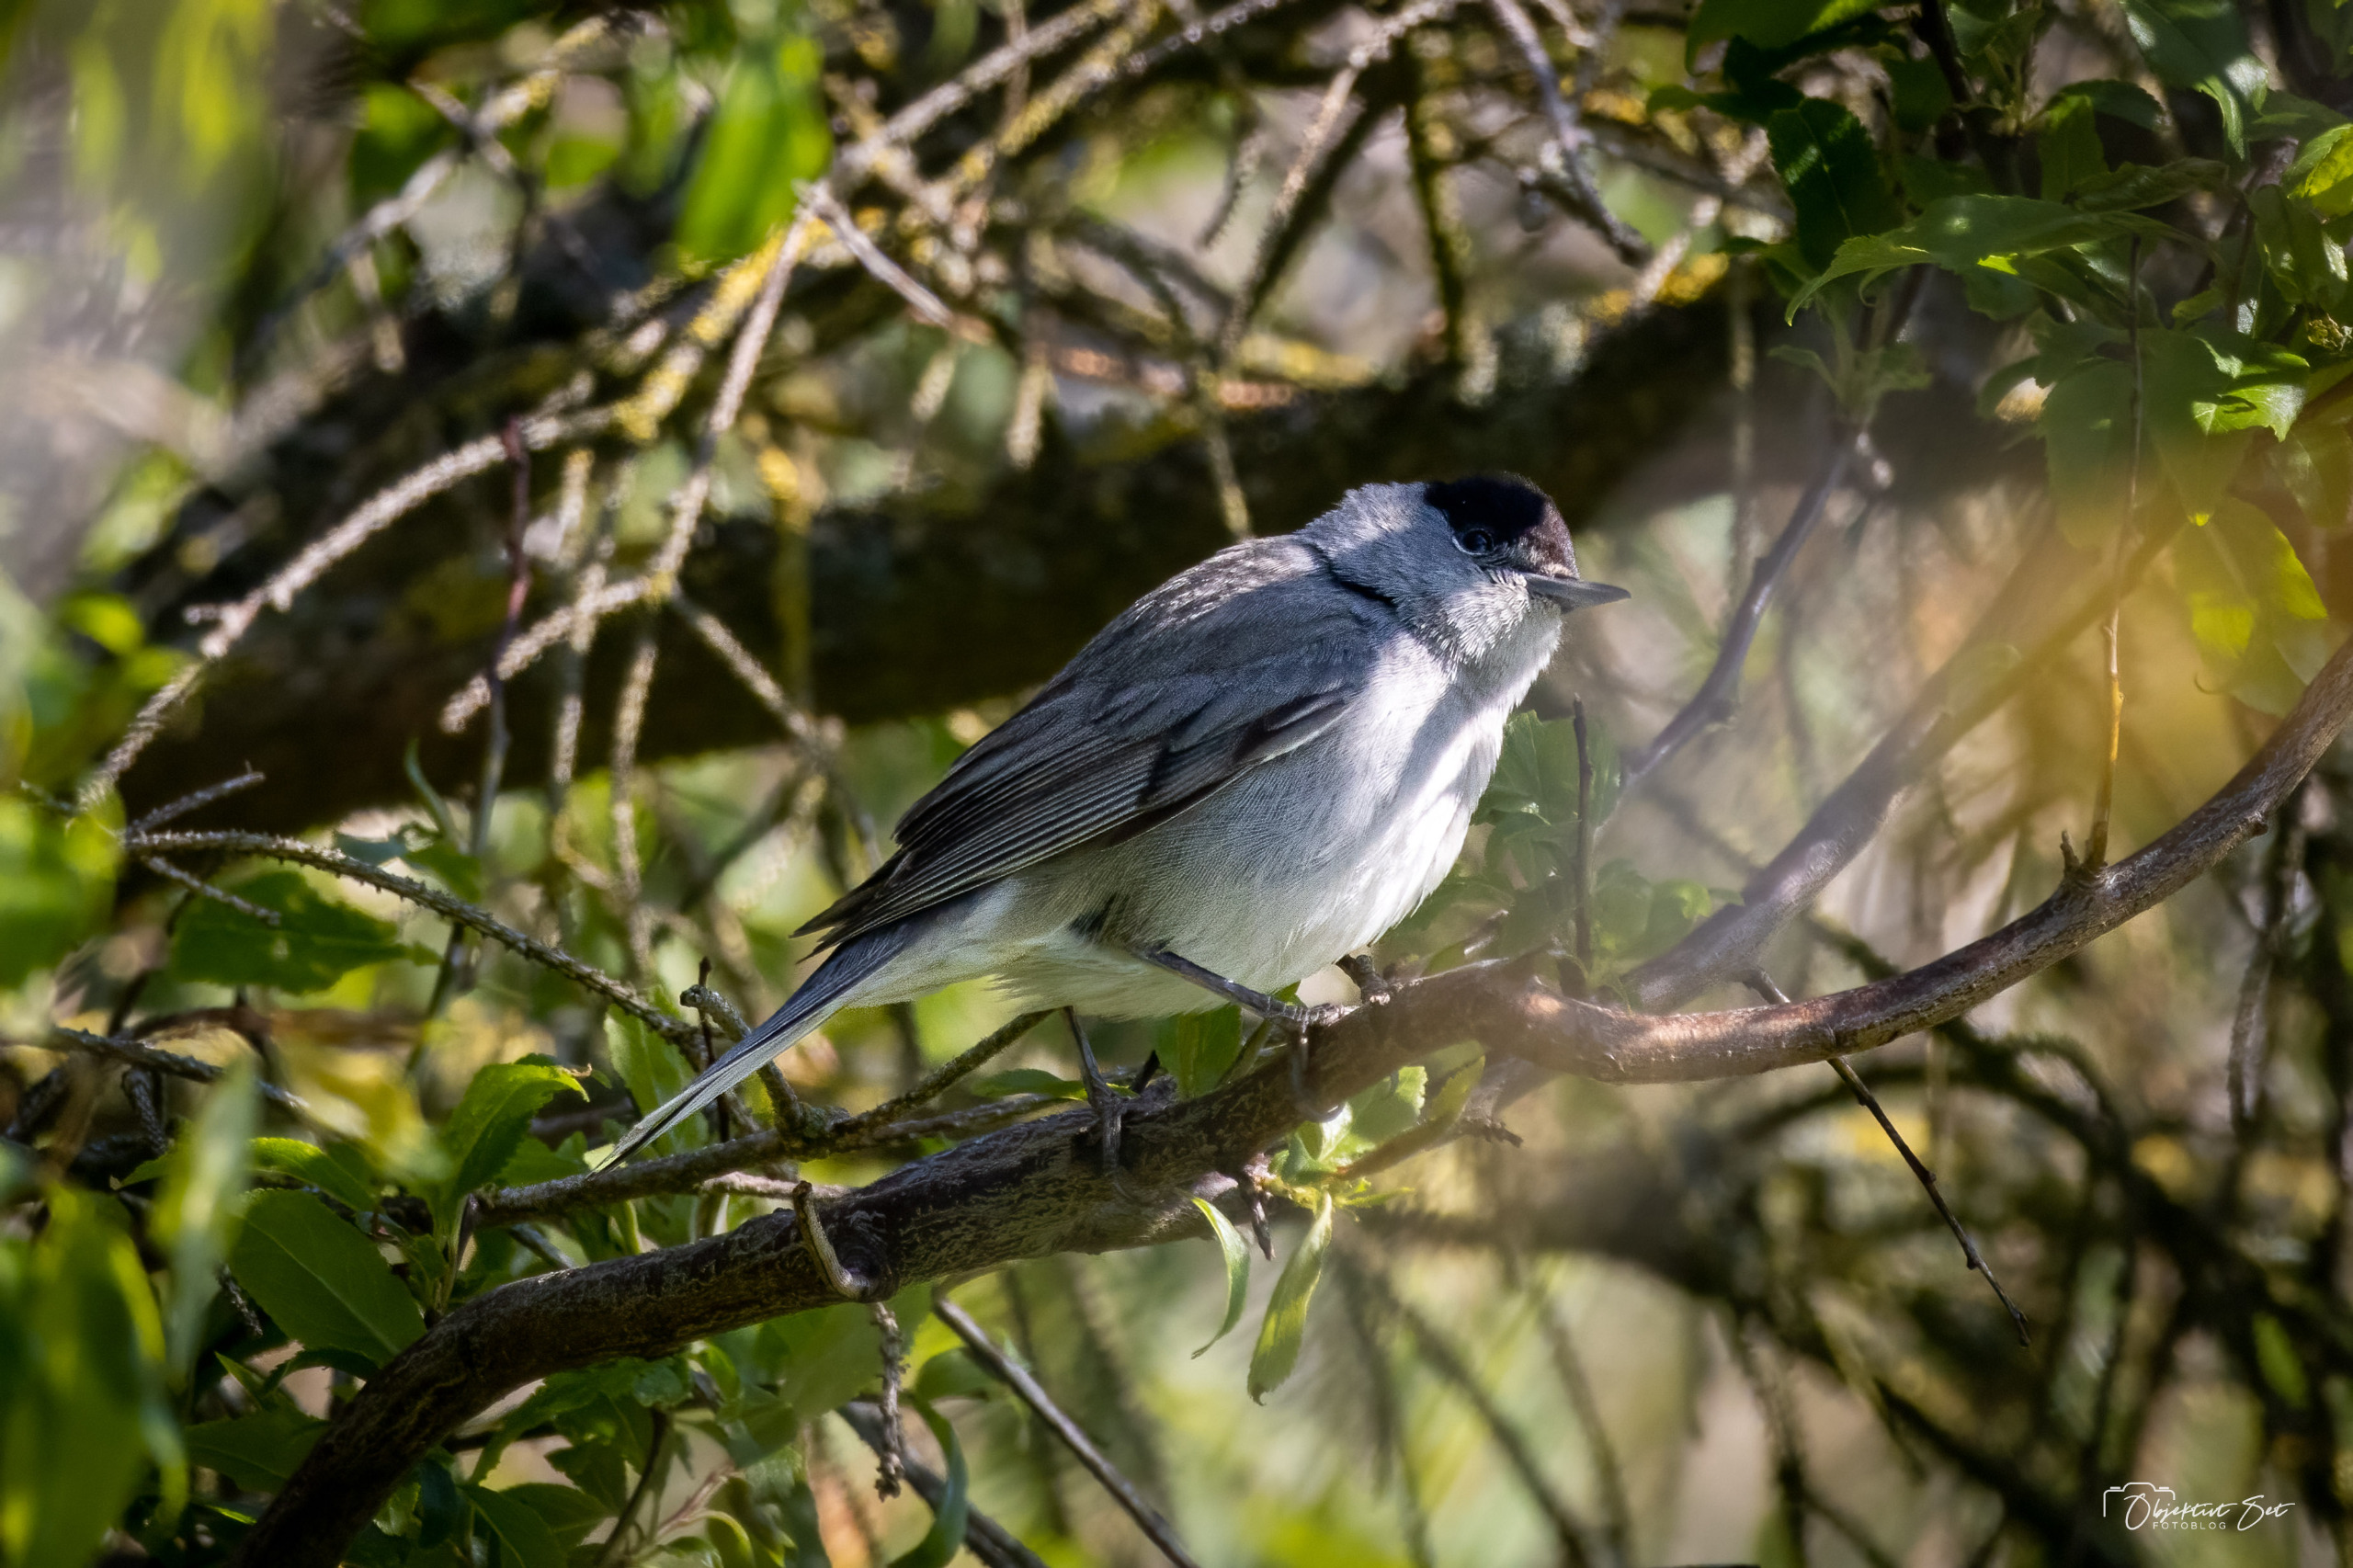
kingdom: Animalia
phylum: Chordata
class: Aves
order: Passeriformes
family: Sylviidae
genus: Sylvia
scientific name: Sylvia atricapilla
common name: Munk
